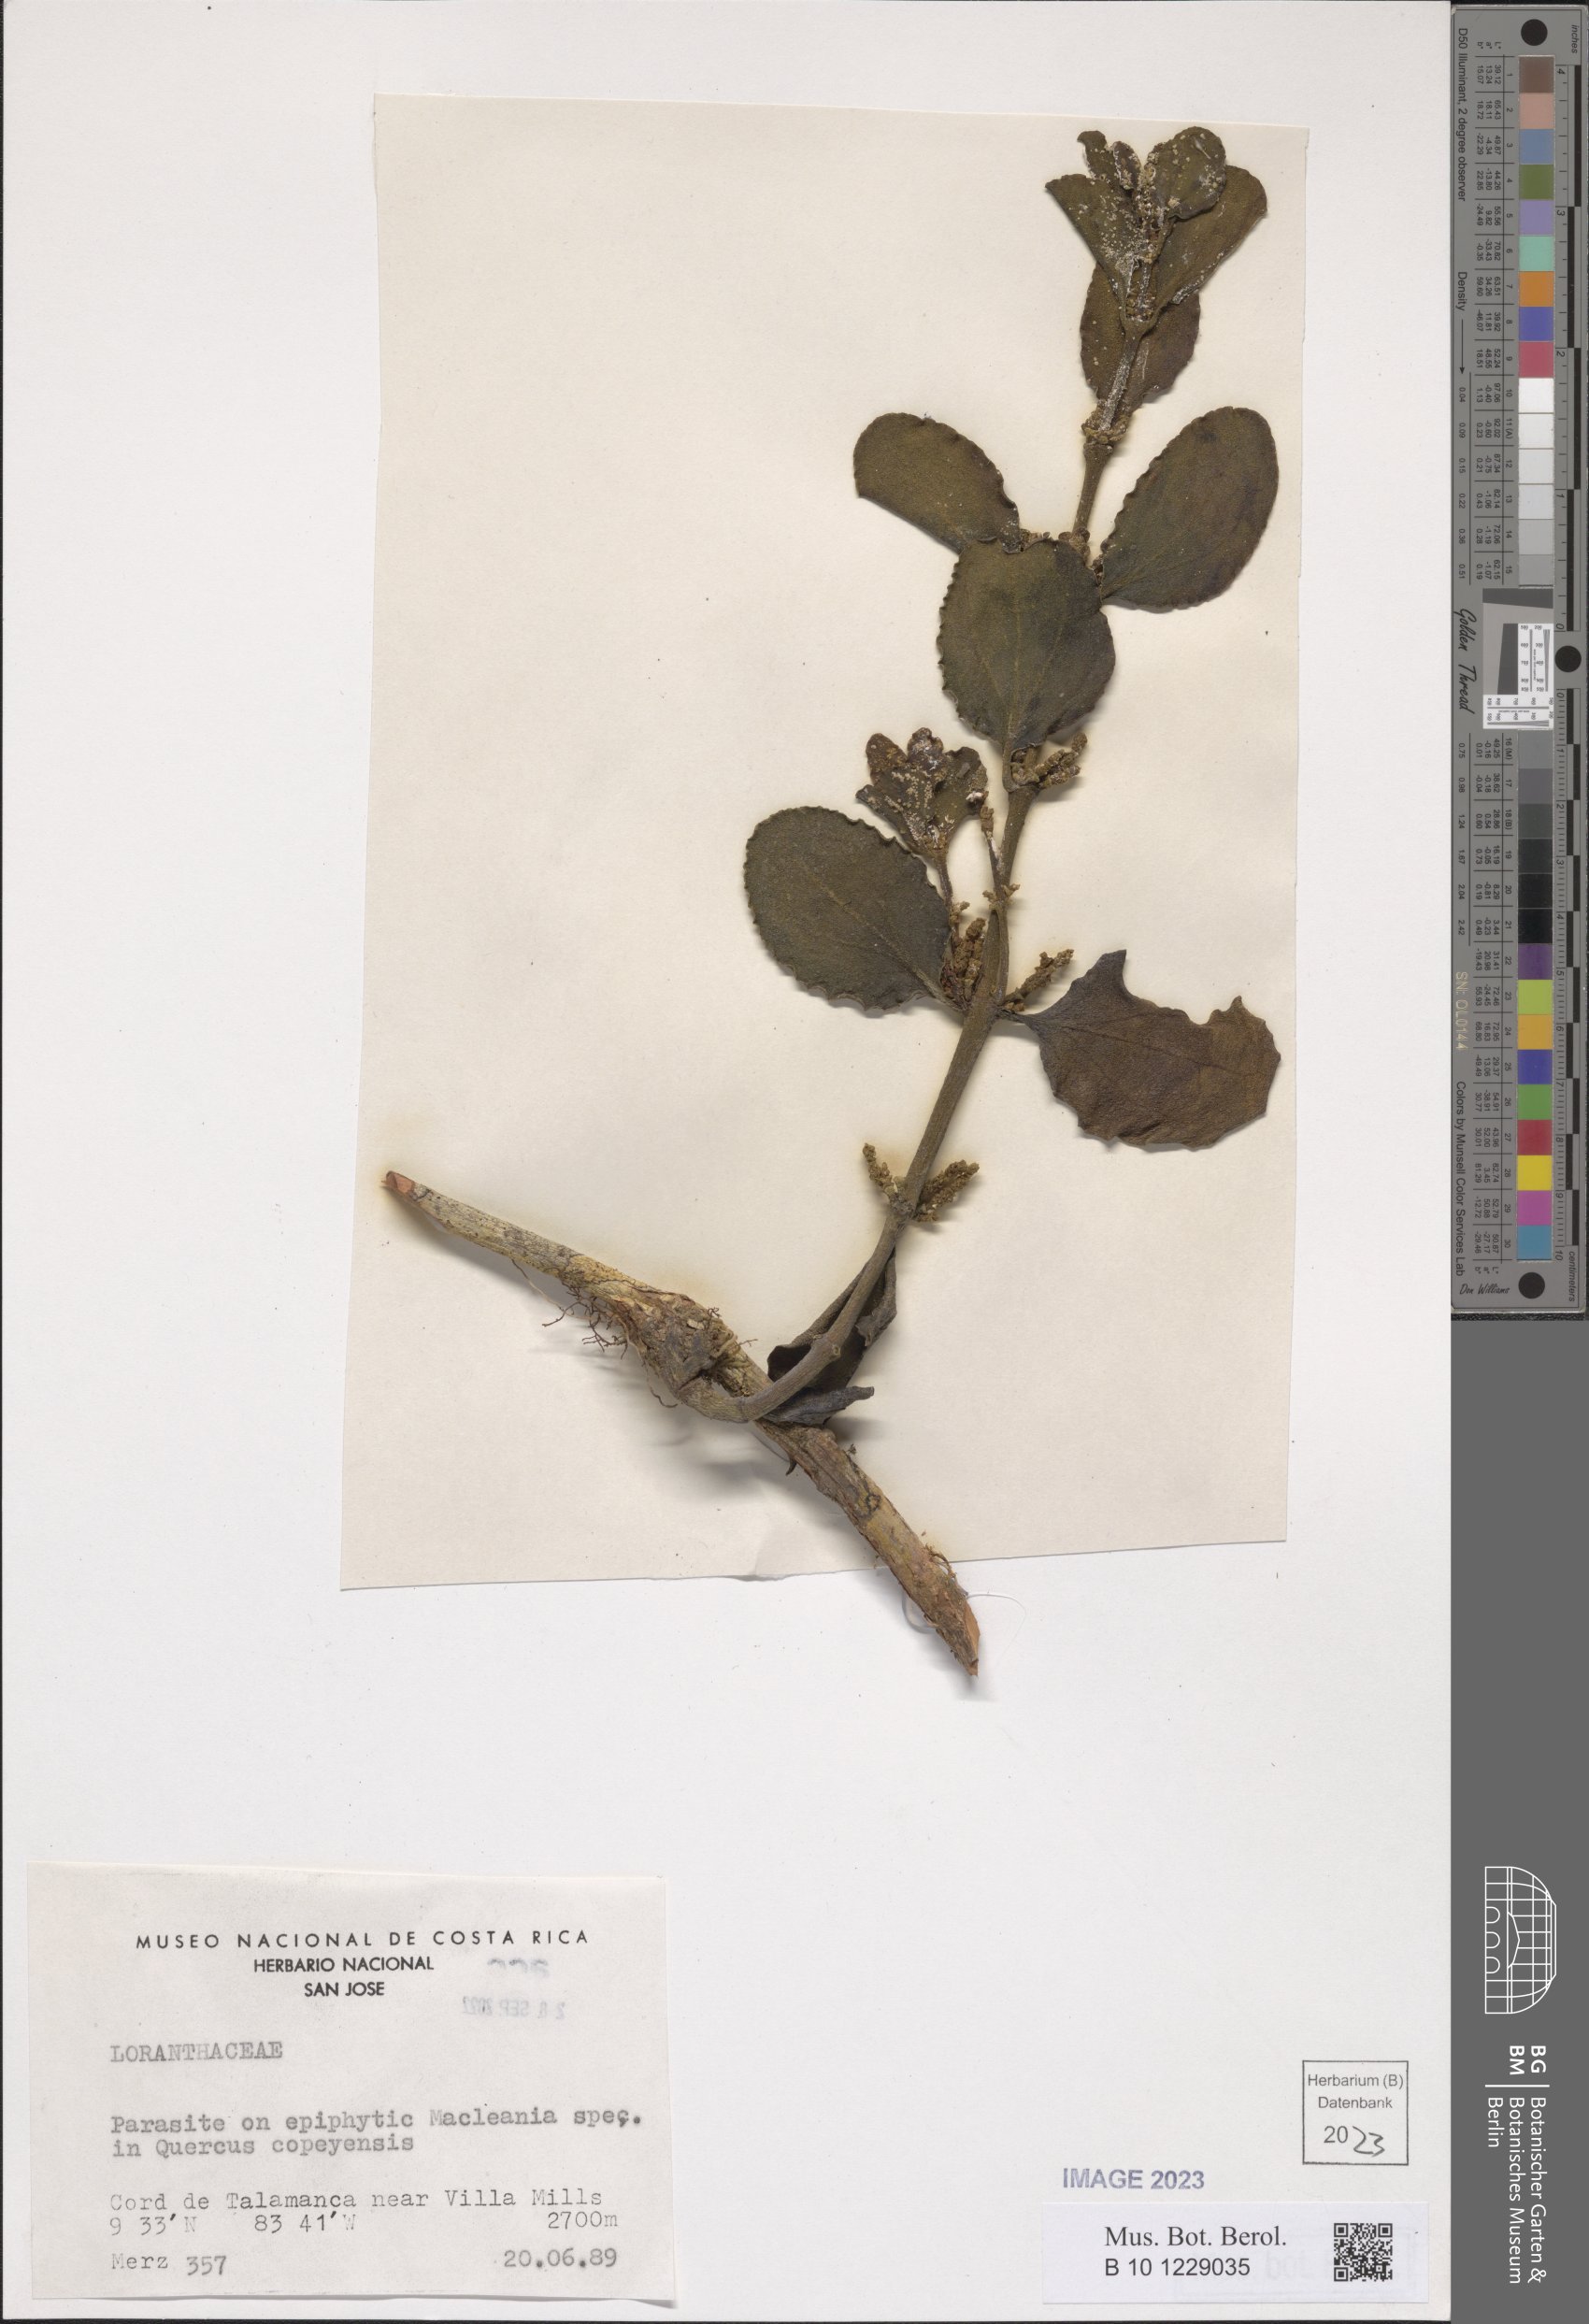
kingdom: Plantae
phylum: Tracheophyta
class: Magnoliopsida
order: Santalales
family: Loranthaceae
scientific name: Loranthaceae
